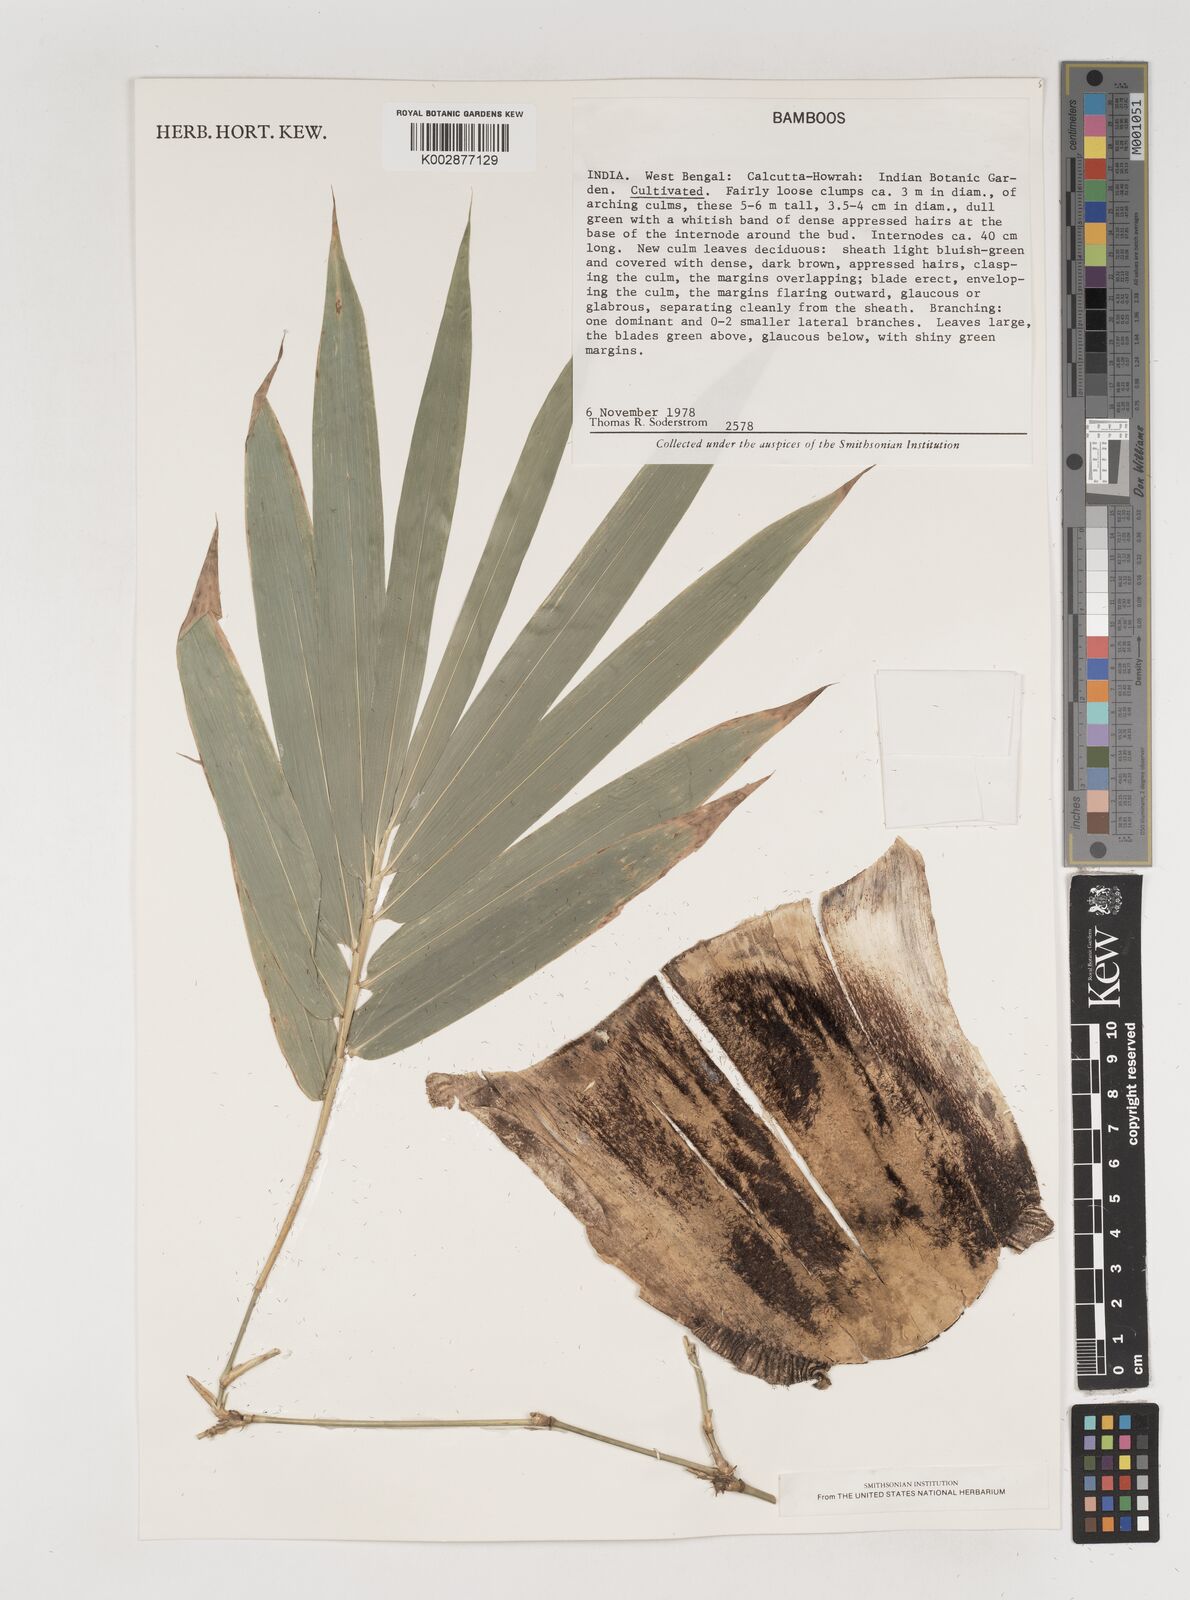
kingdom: Plantae
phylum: Tracheophyta
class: Liliopsida
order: Poales
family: Poaceae
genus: Bambusa
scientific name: Bambusa
